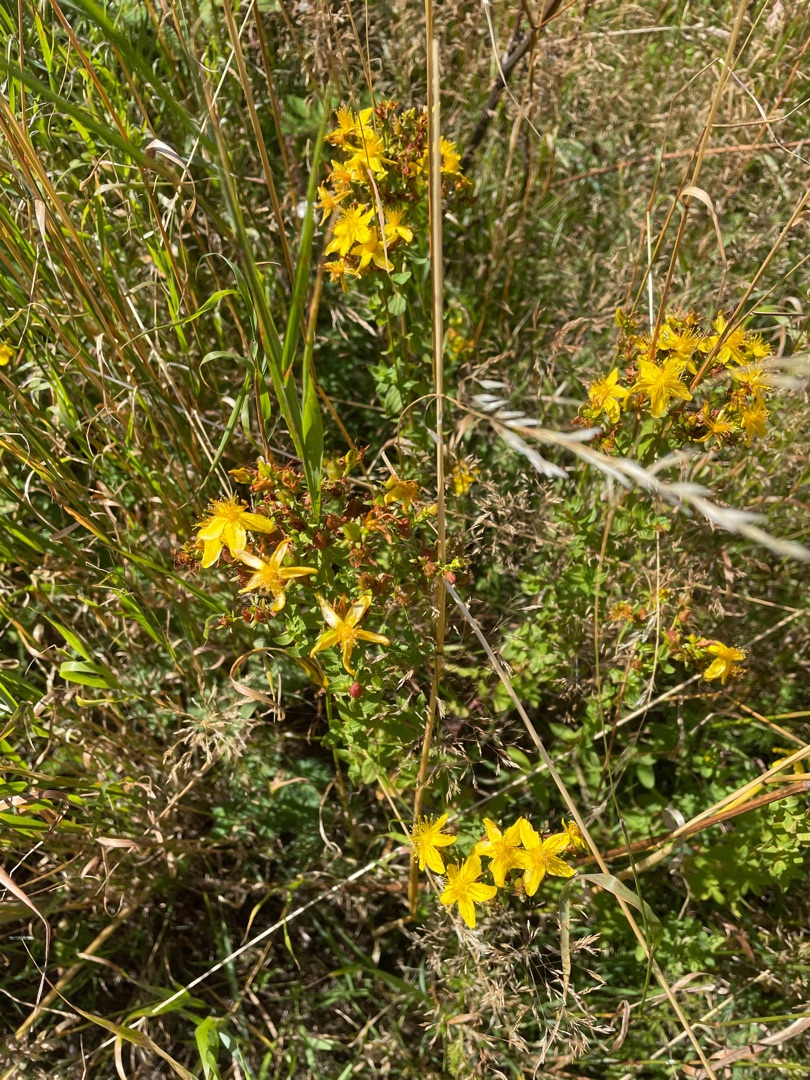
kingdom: Plantae
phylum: Tracheophyta
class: Magnoliopsida
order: Malpighiales
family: Hypericaceae
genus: Hypericum
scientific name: Hypericum perforatum
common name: Prikbladet perikon
